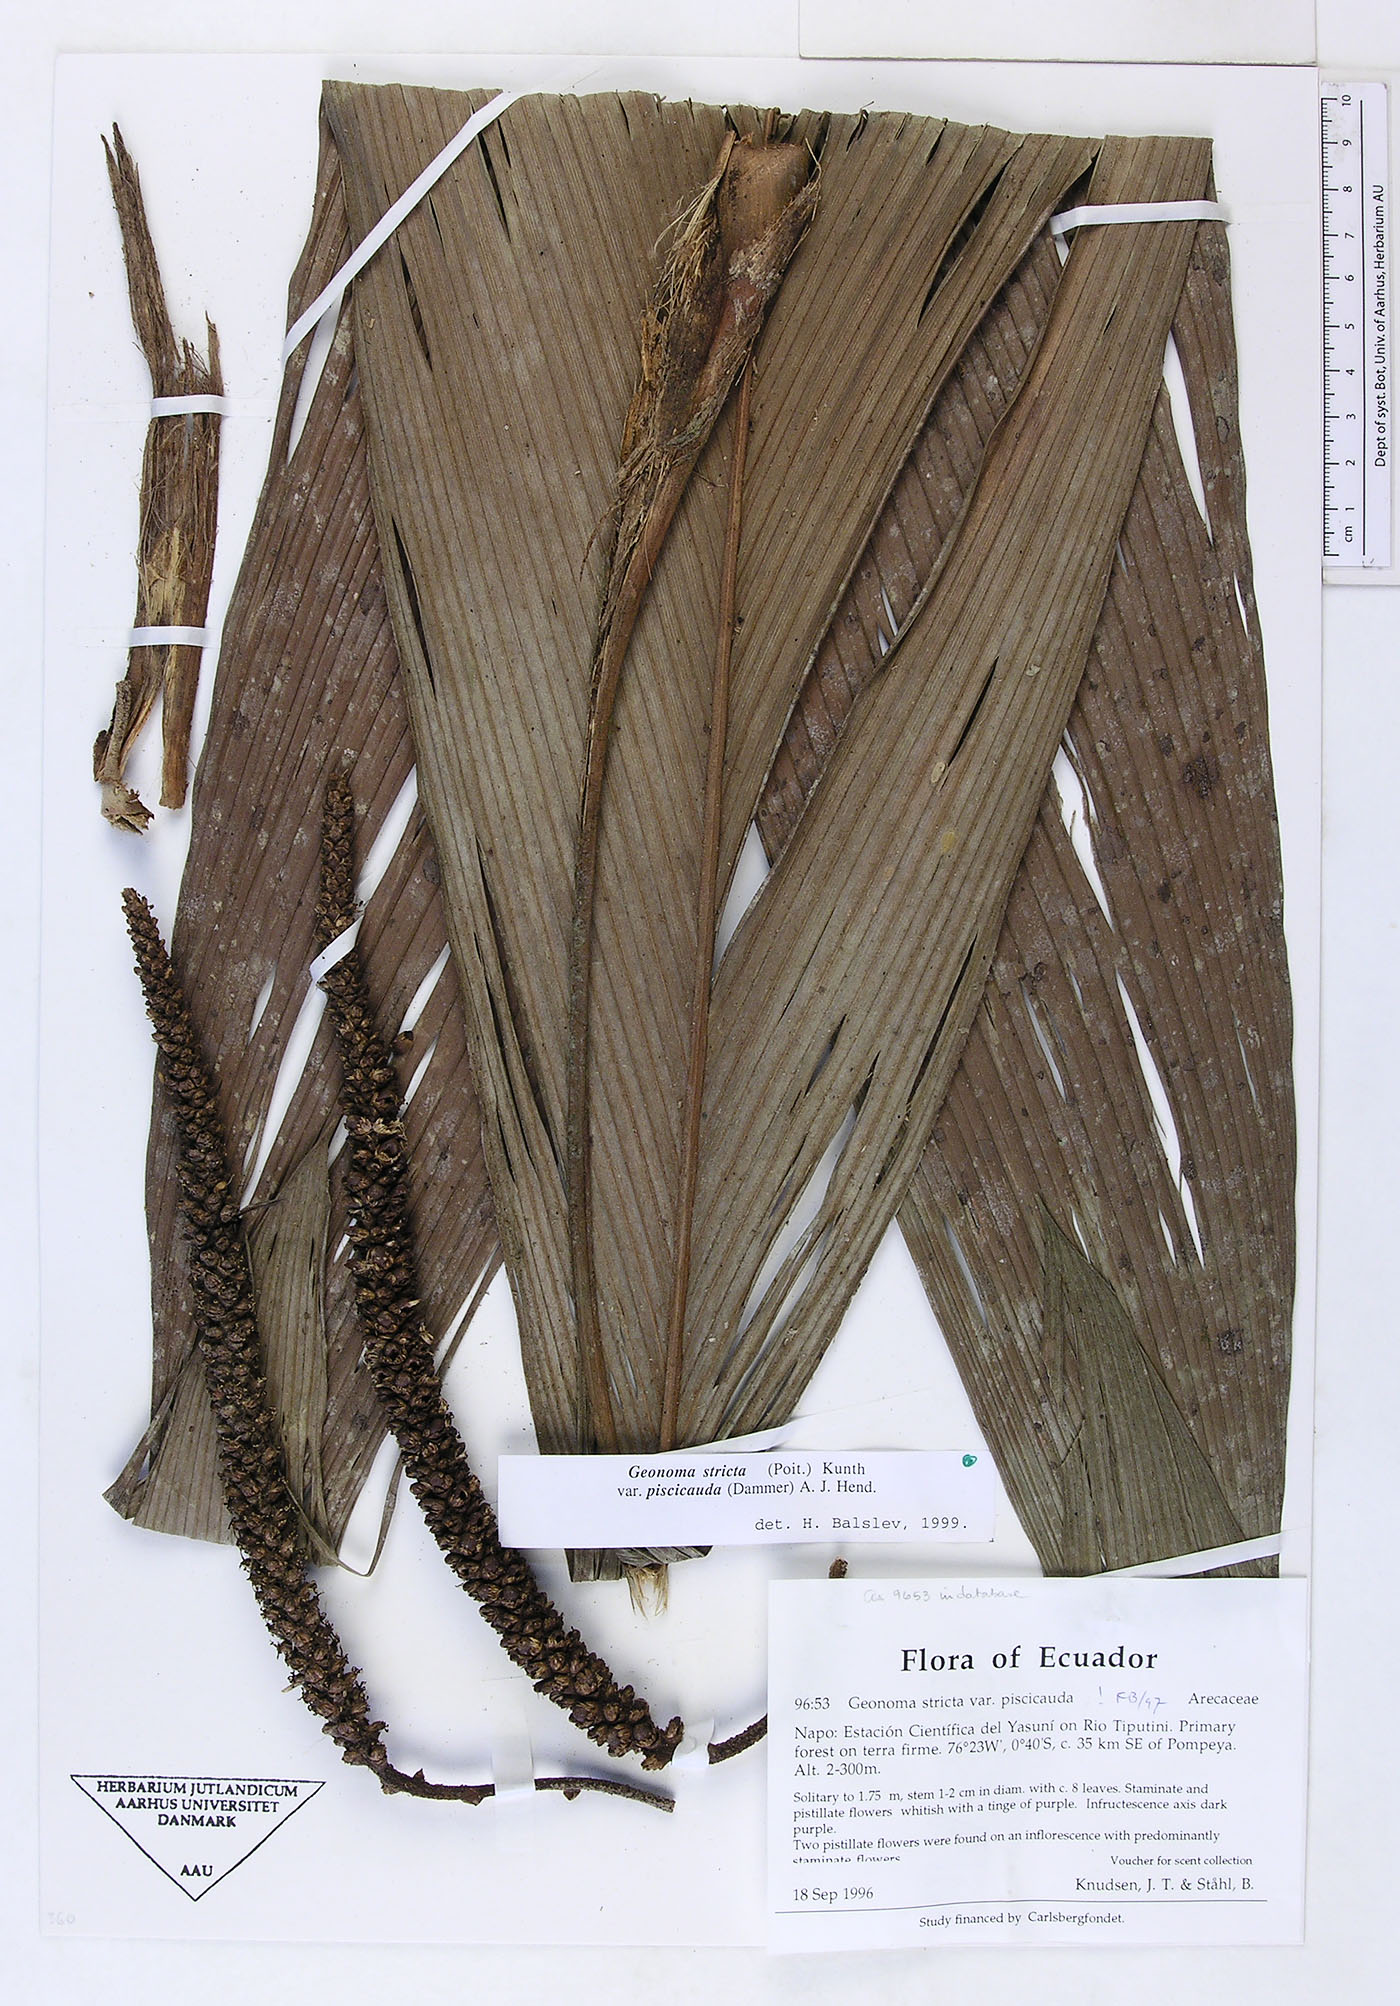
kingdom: Plantae
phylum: Tracheophyta
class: Liliopsida
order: Arecales
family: Arecaceae
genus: Geonoma
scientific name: Geonoma stricta
